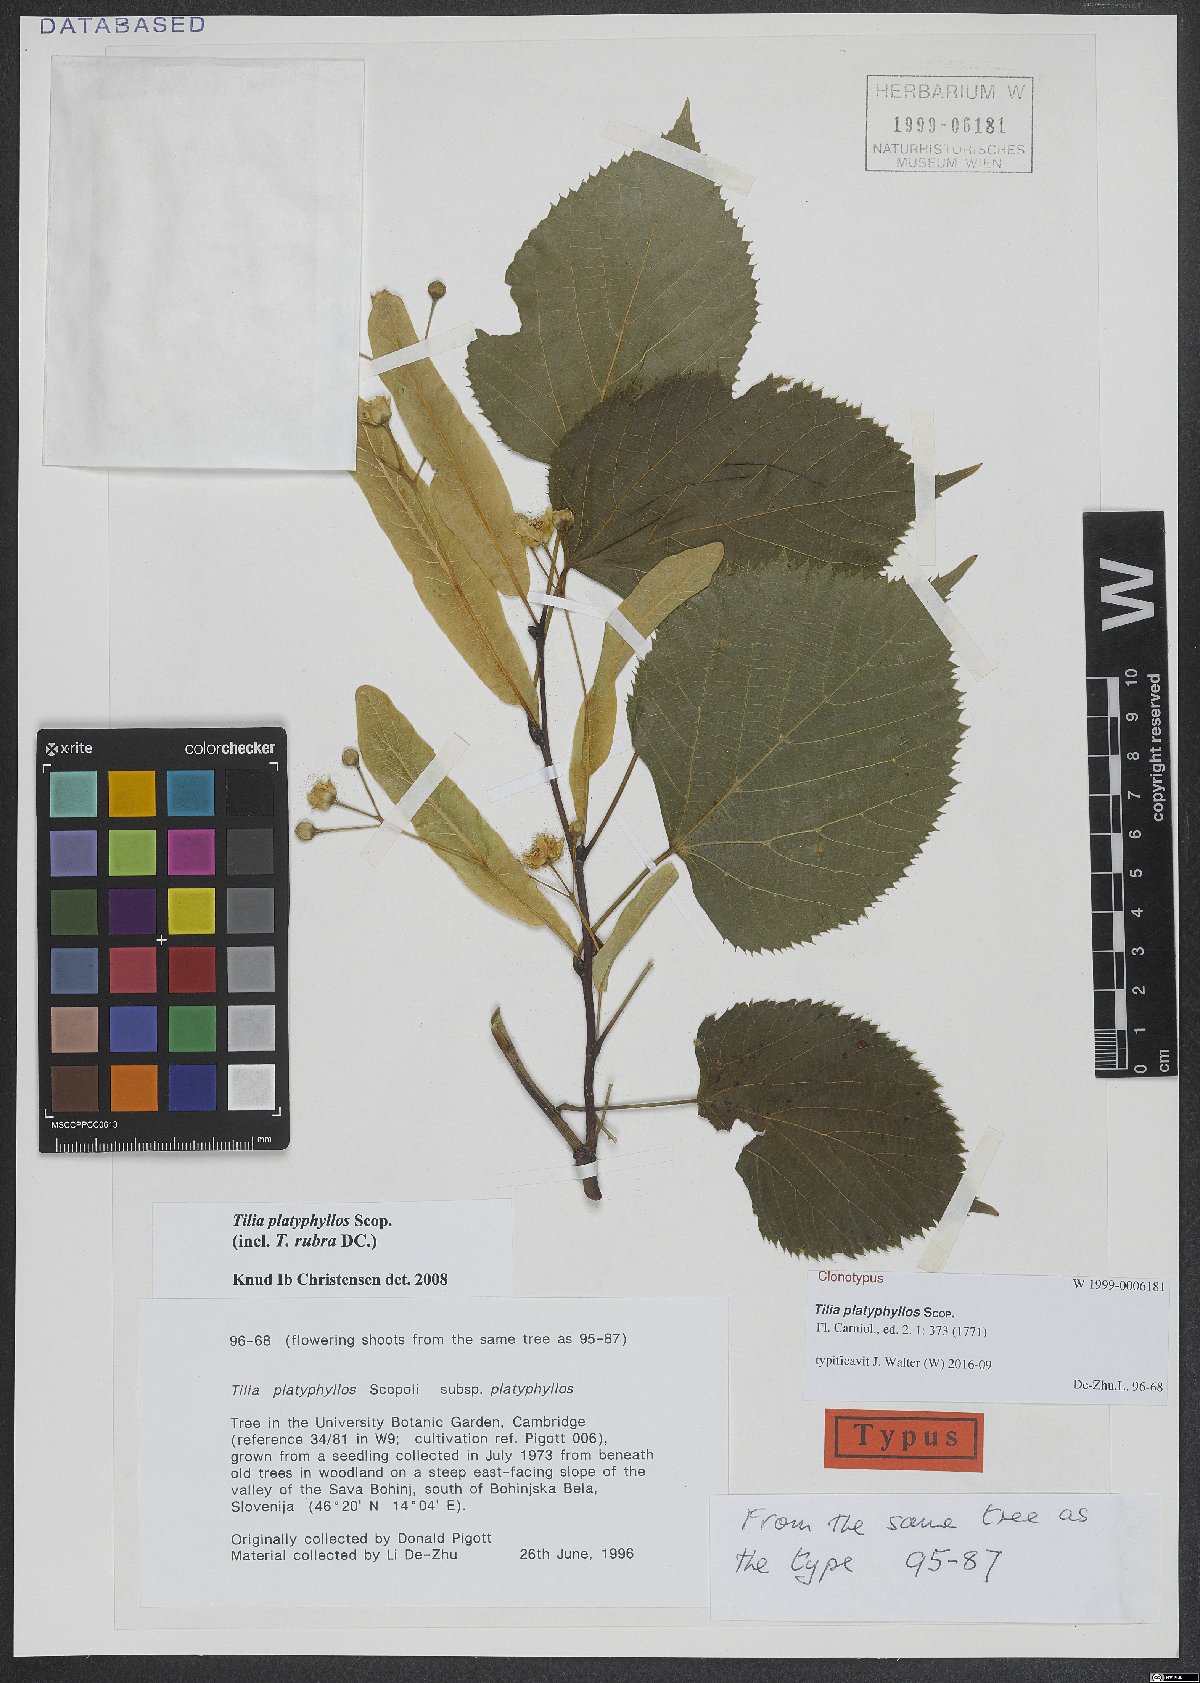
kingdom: Plantae
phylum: Tracheophyta
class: Magnoliopsida
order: Malvales
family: Malvaceae
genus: Tilia
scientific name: Tilia platyphyllos
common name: Large-leaved lime
